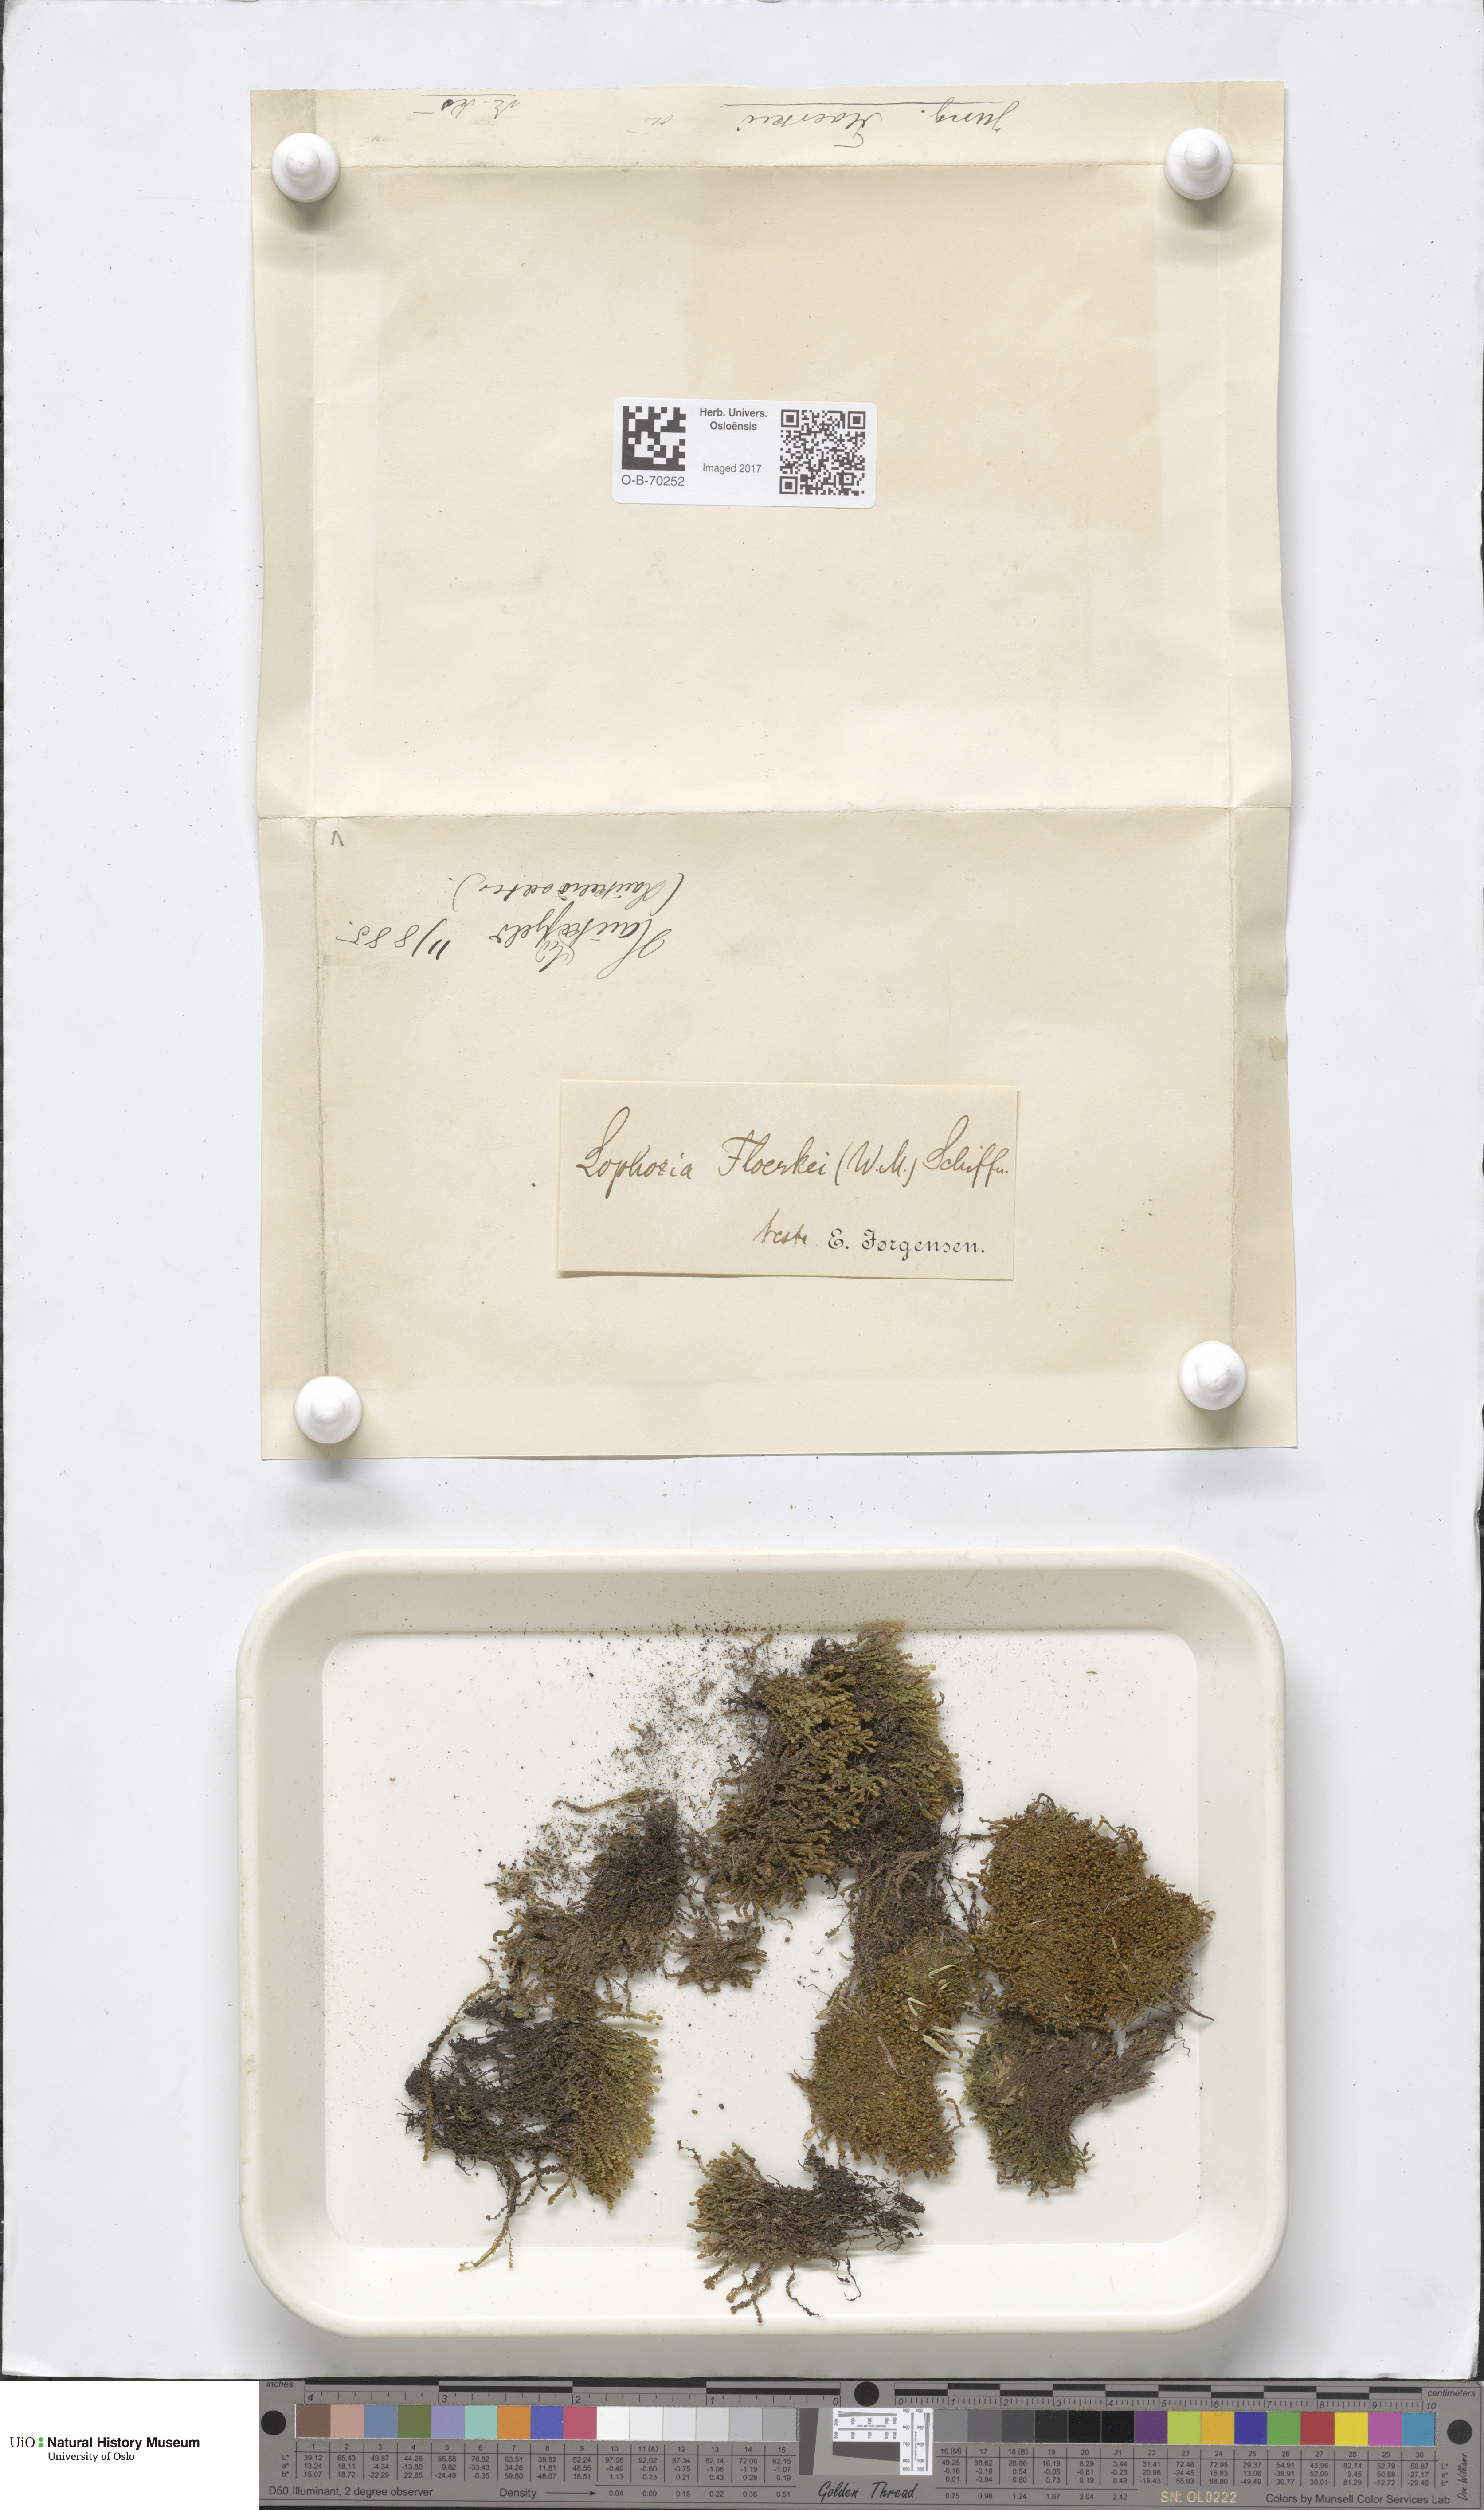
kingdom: Plantae
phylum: Marchantiophyta
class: Jungermanniopsida
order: Jungermanniales
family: Anastrophyllaceae
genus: Neoorthocaulis
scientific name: Neoorthocaulis floerkei
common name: Floerke's barbilophozia
